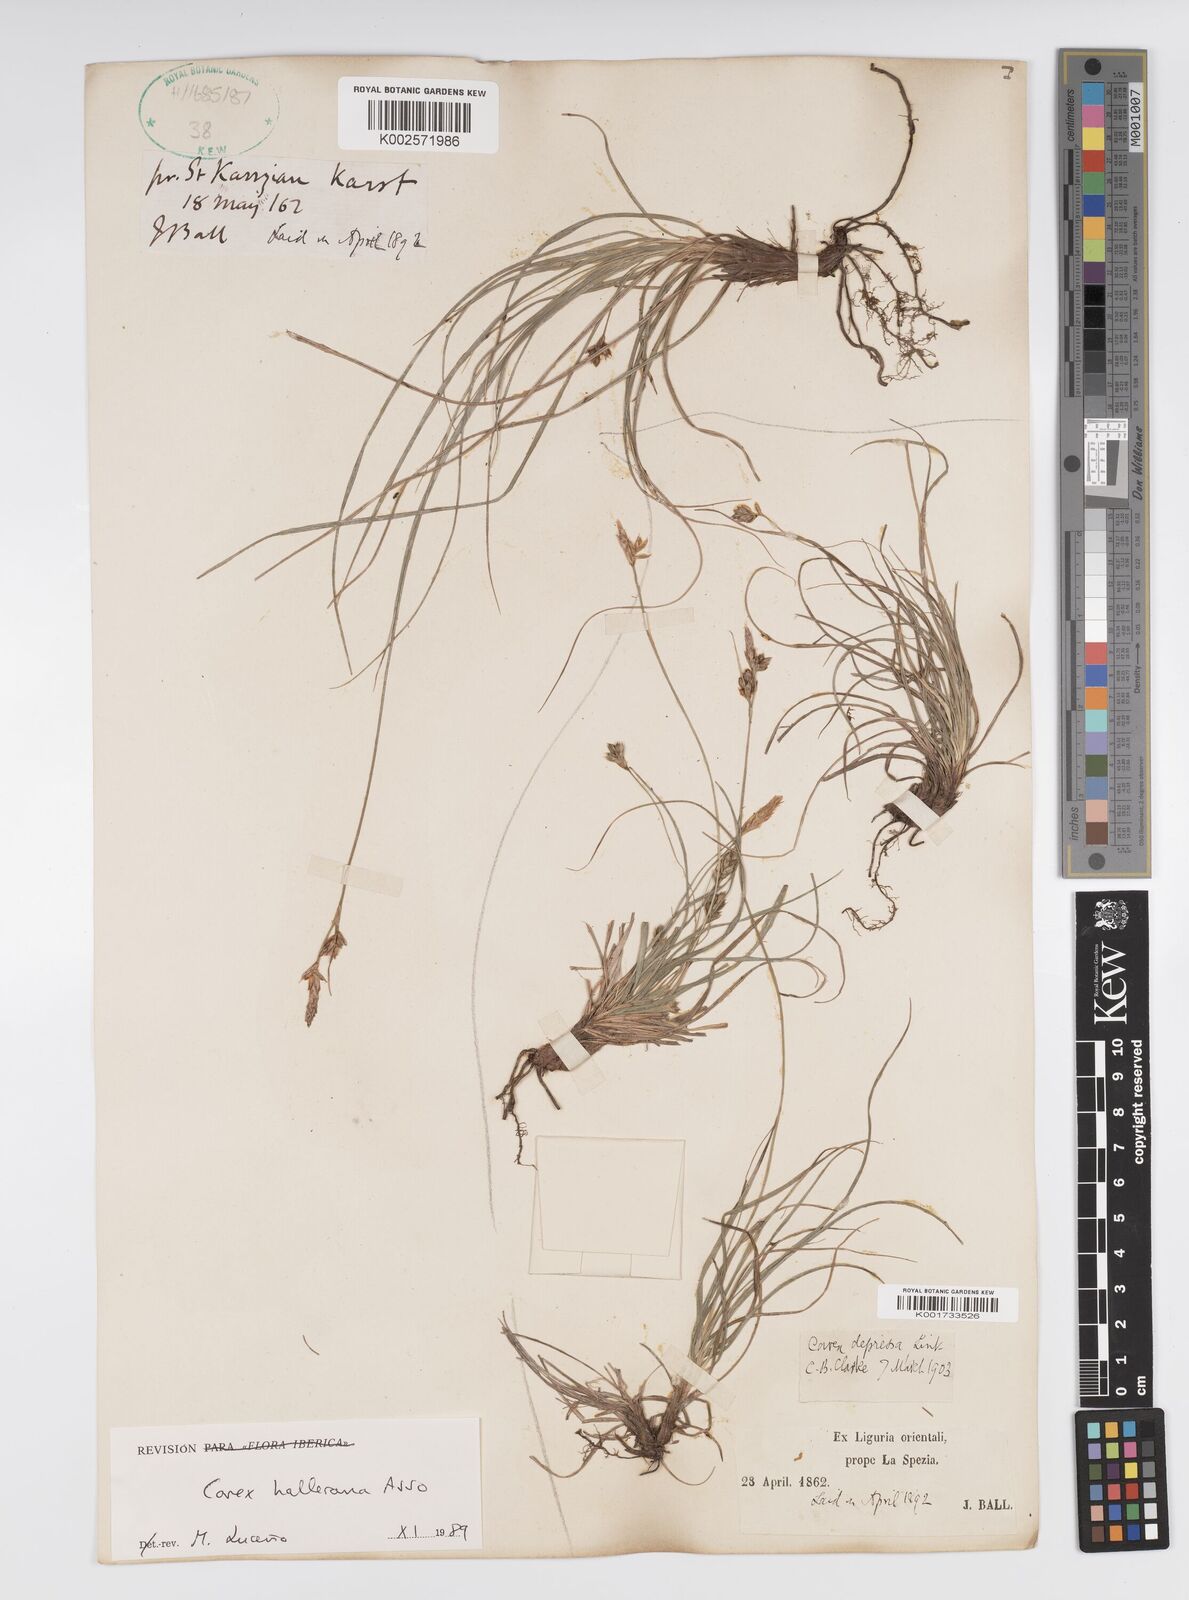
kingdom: Plantae
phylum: Tracheophyta
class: Liliopsida
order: Poales
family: Cyperaceae
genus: Carex
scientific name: Carex halleriana
